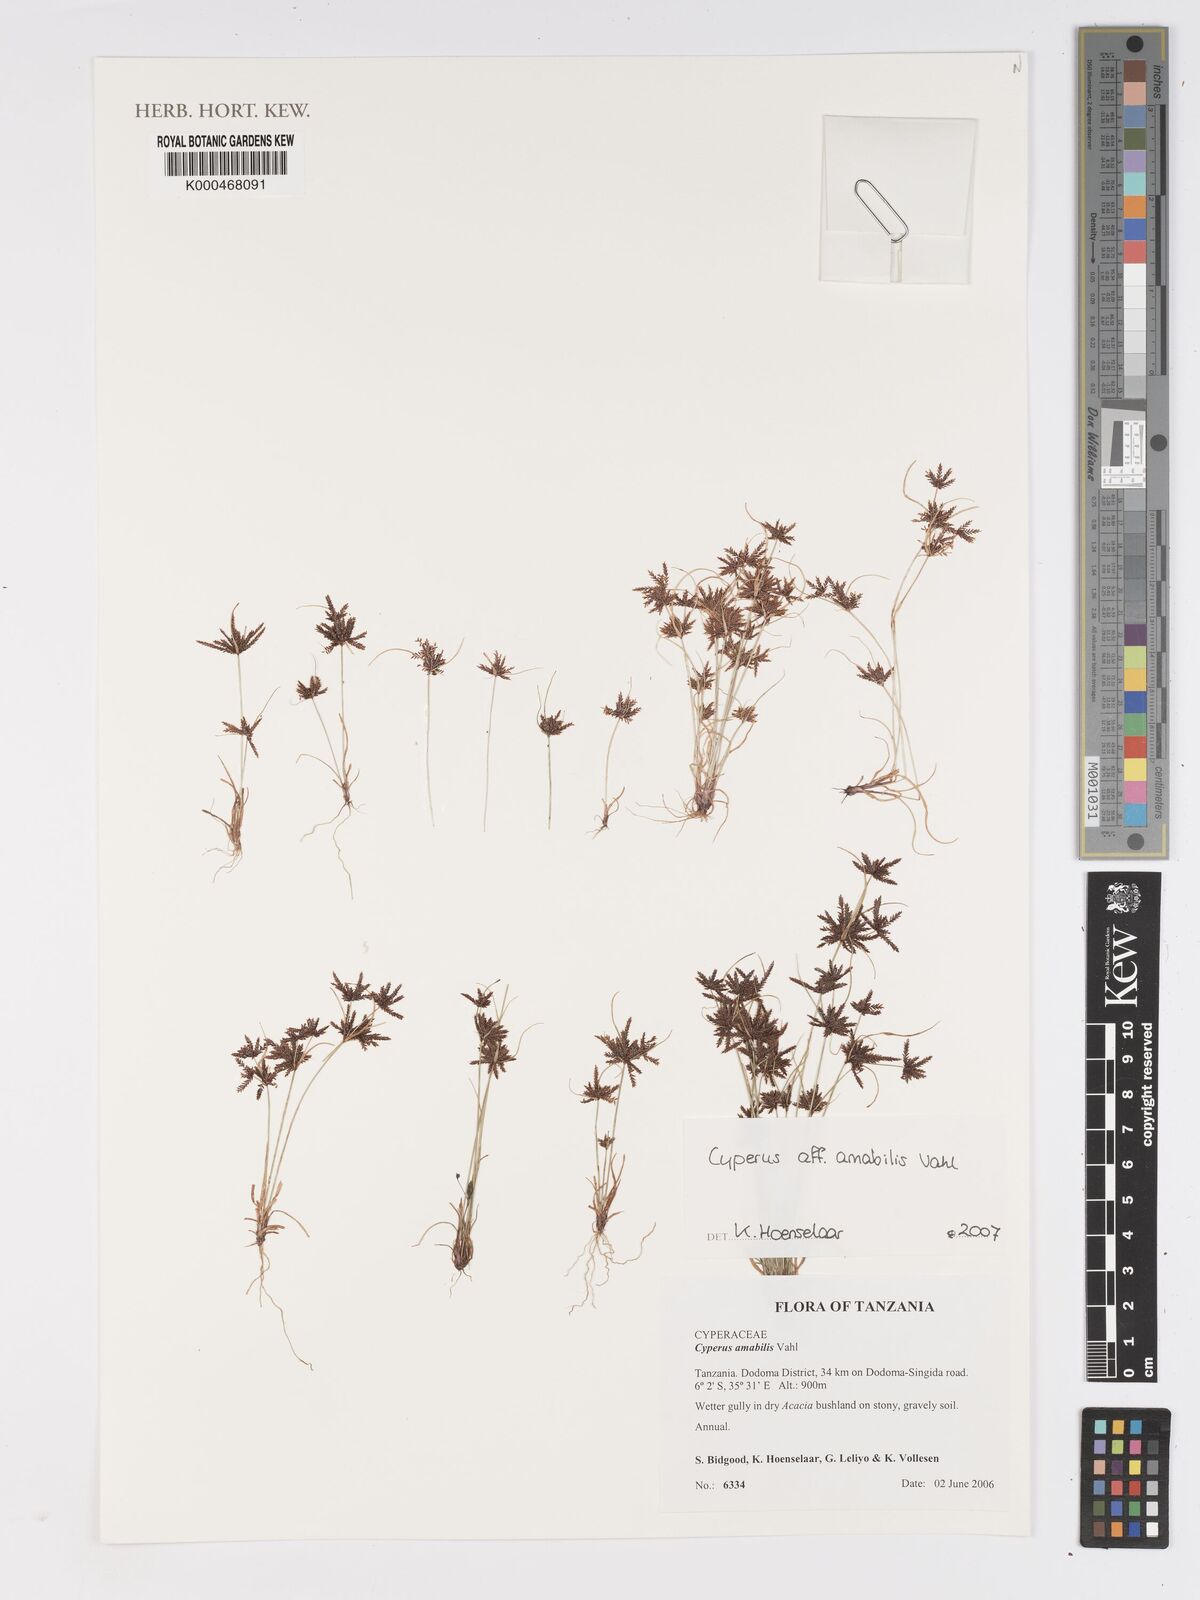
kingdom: Plantae
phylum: Tracheophyta
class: Liliopsida
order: Poales
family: Cyperaceae
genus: Cyperus
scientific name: Cyperus amabilis
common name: Foothill flat sedge
